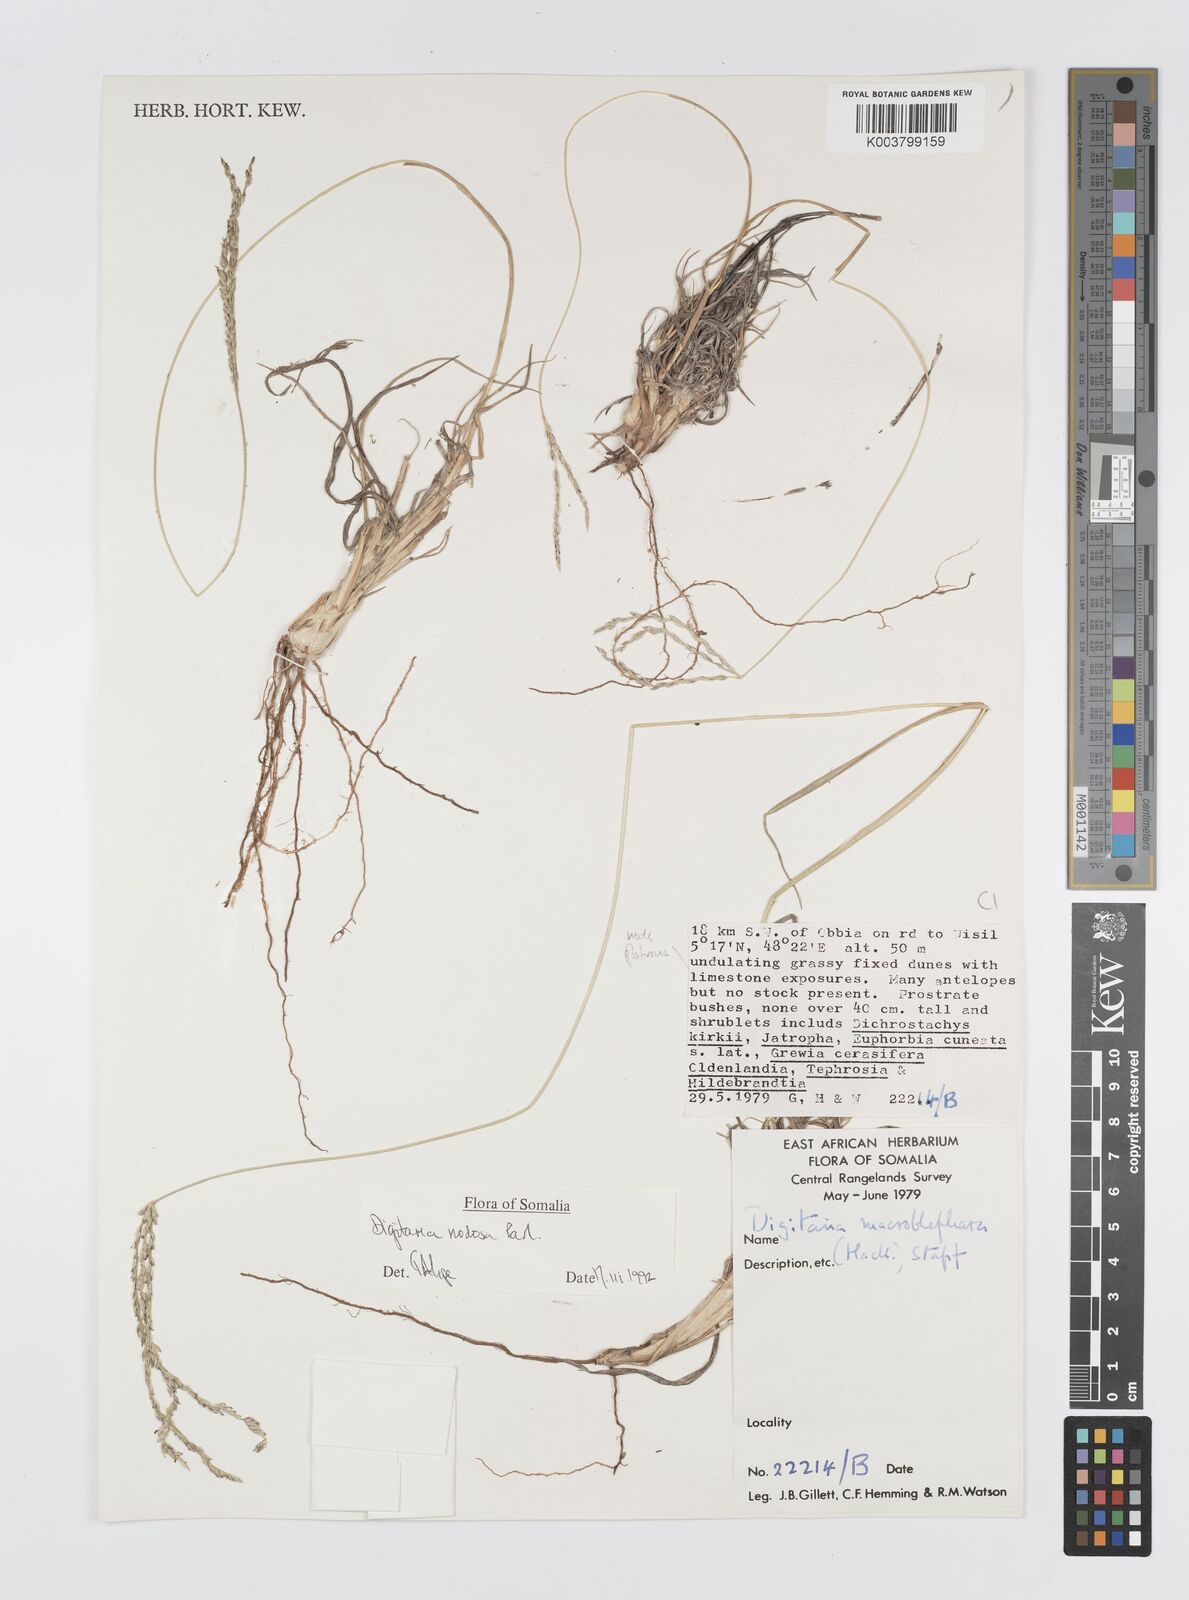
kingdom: Plantae
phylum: Tracheophyta
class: Liliopsida
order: Poales
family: Poaceae
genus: Digitaria
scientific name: Digitaria nodosa
